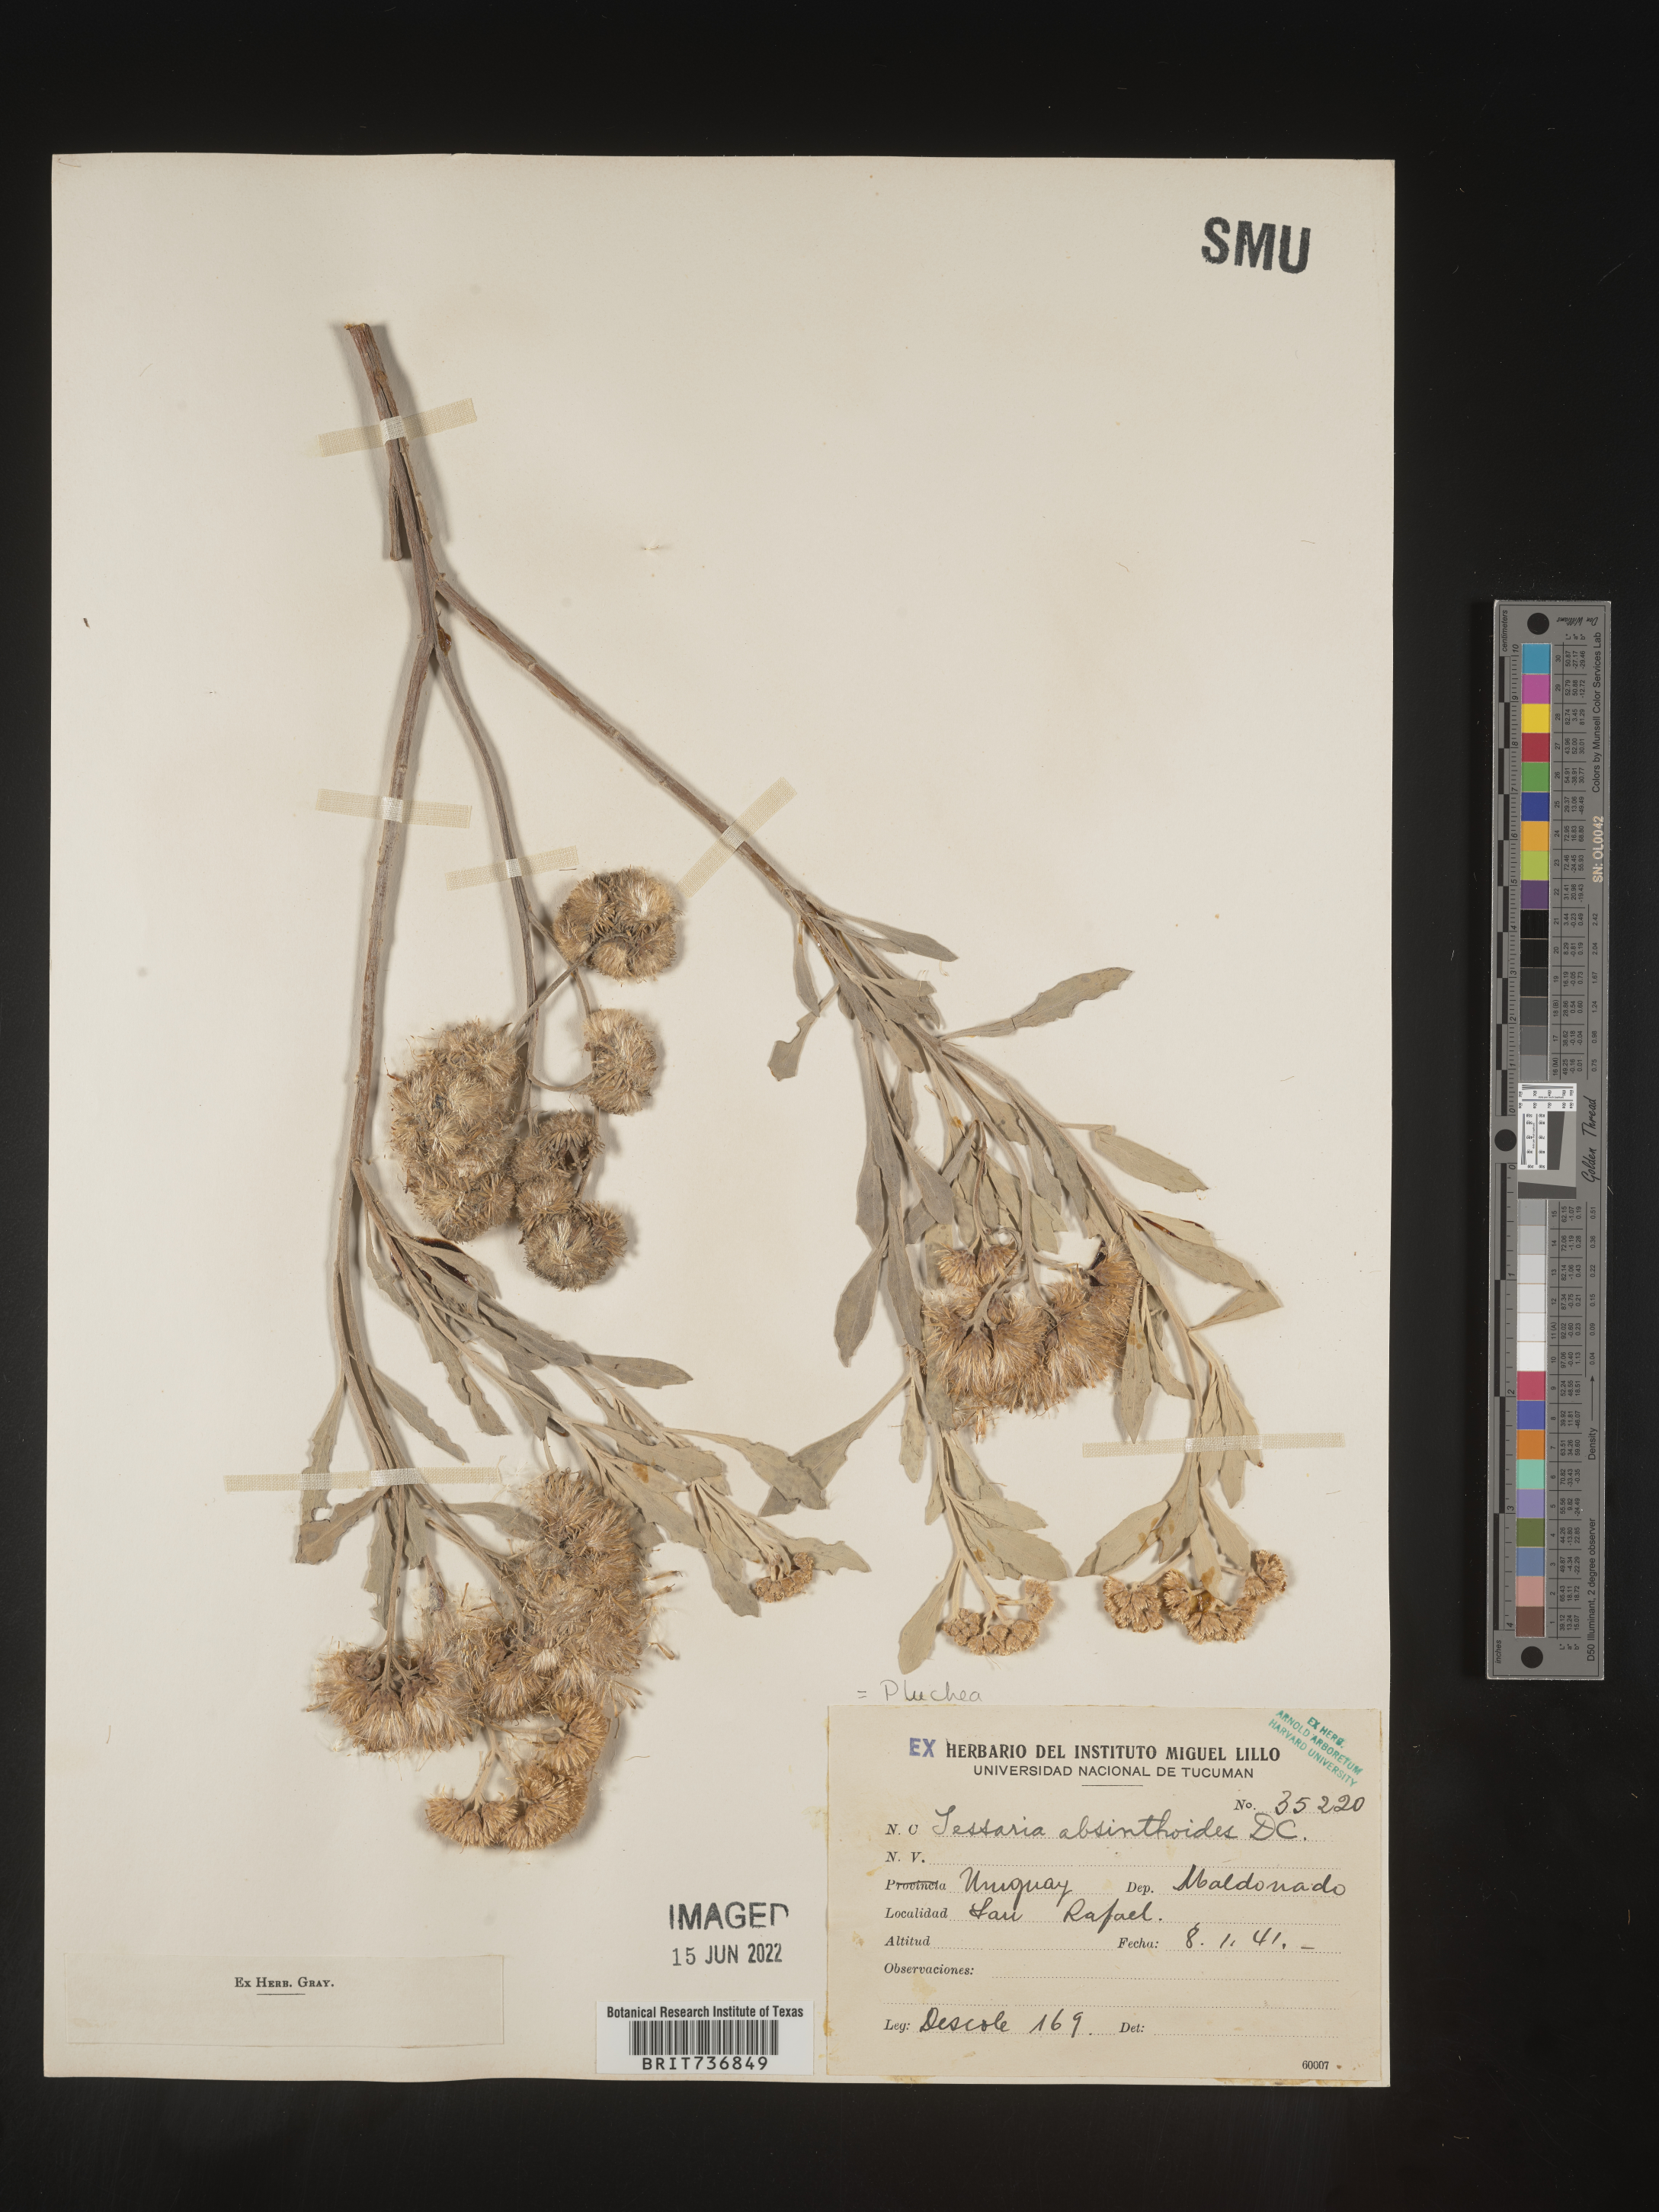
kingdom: Plantae
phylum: Tracheophyta
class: Magnoliopsida
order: Asterales
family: Asteraceae
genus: Pluchea
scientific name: Pluchea
